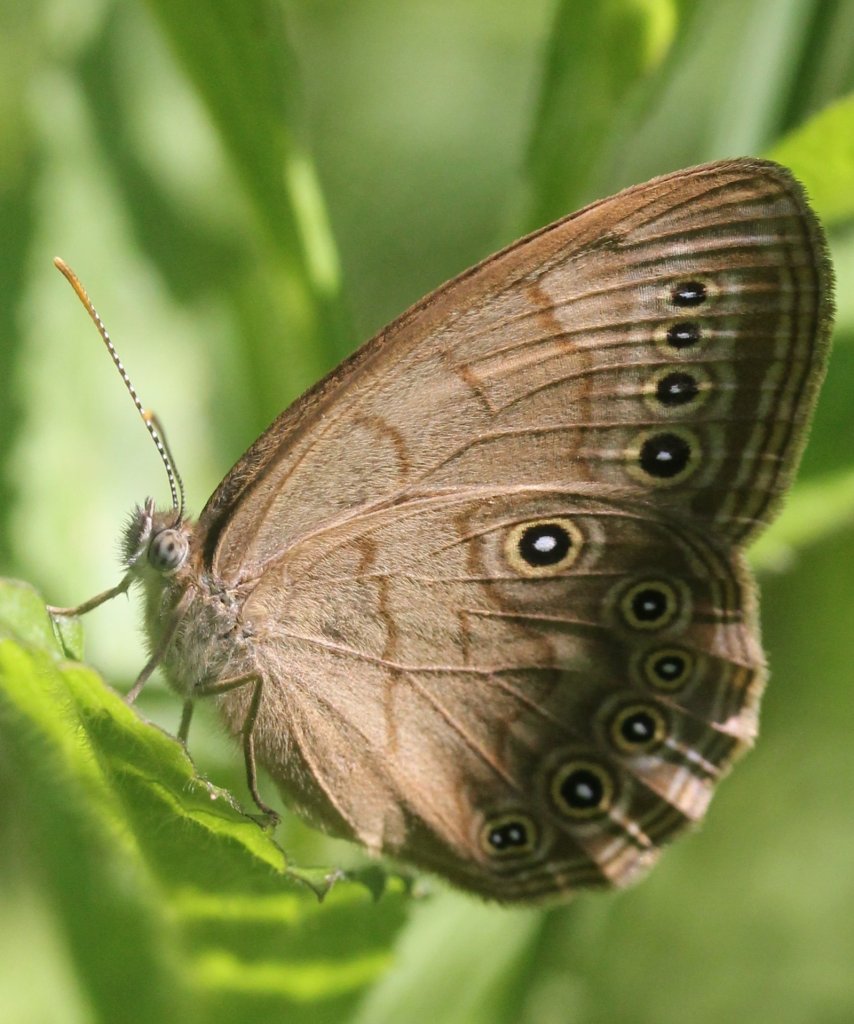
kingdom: Animalia
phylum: Arthropoda
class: Insecta
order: Lepidoptera
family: Nymphalidae
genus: Lethe
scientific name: Lethe eurydice
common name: Eyed Brown
